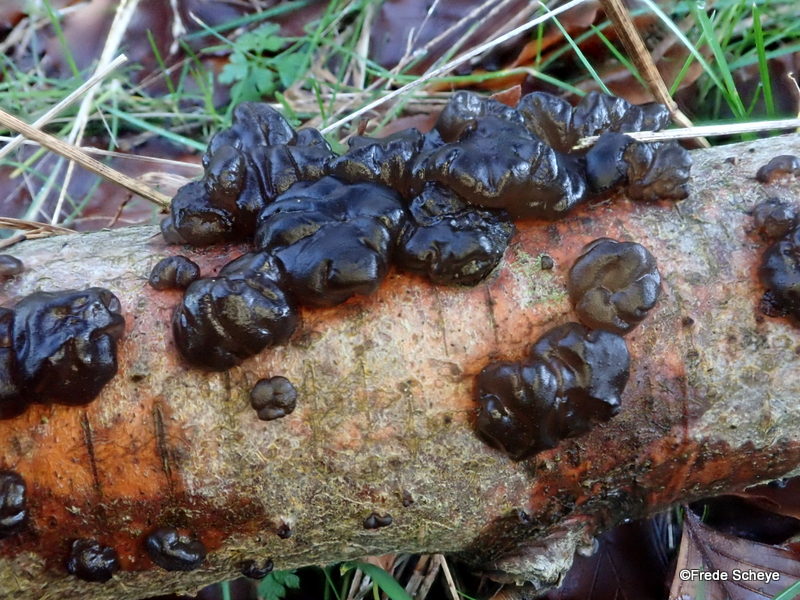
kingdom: Fungi
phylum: Basidiomycota
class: Agaricomycetes
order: Auriculariales
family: Auriculariaceae
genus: Exidia
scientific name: Exidia nigricans
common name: almindelig bævretop
